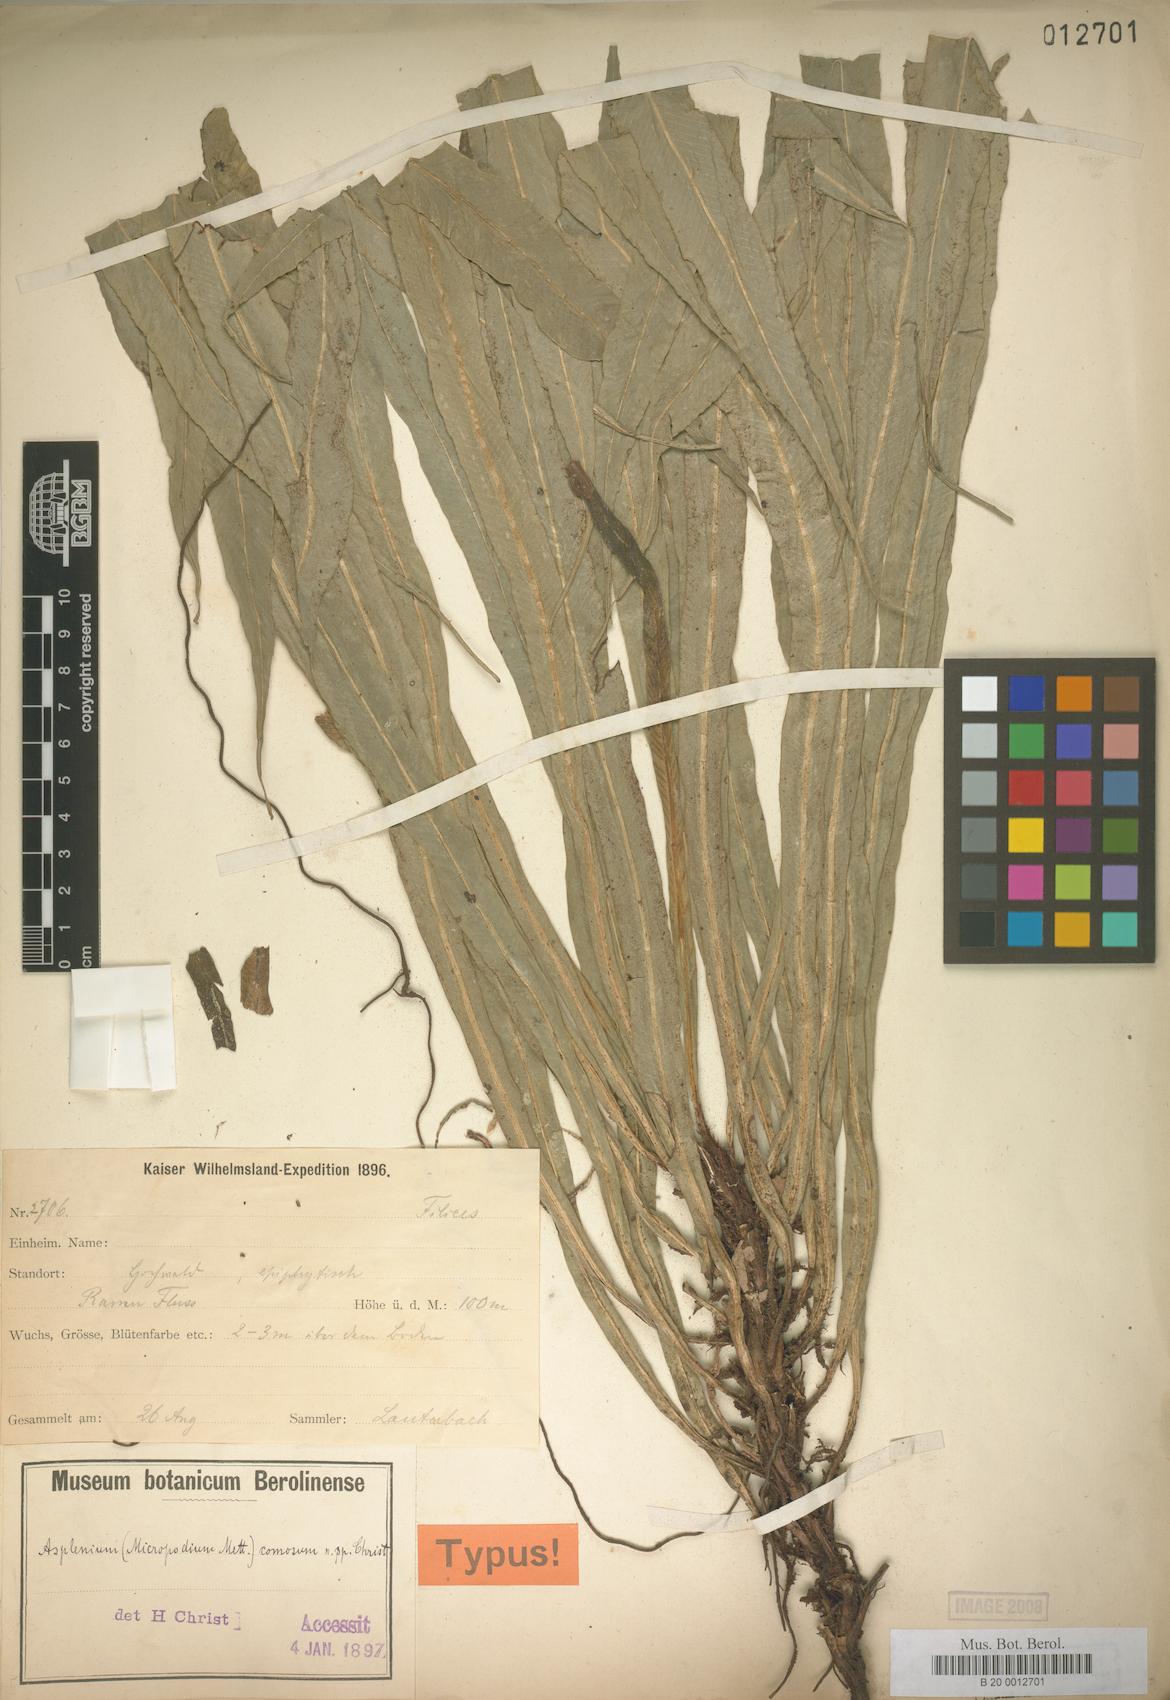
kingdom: Plantae
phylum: Tracheophyta
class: Polypodiopsida
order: Polypodiales
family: Aspleniaceae
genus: Asplenium
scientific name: Asplenium comosum
